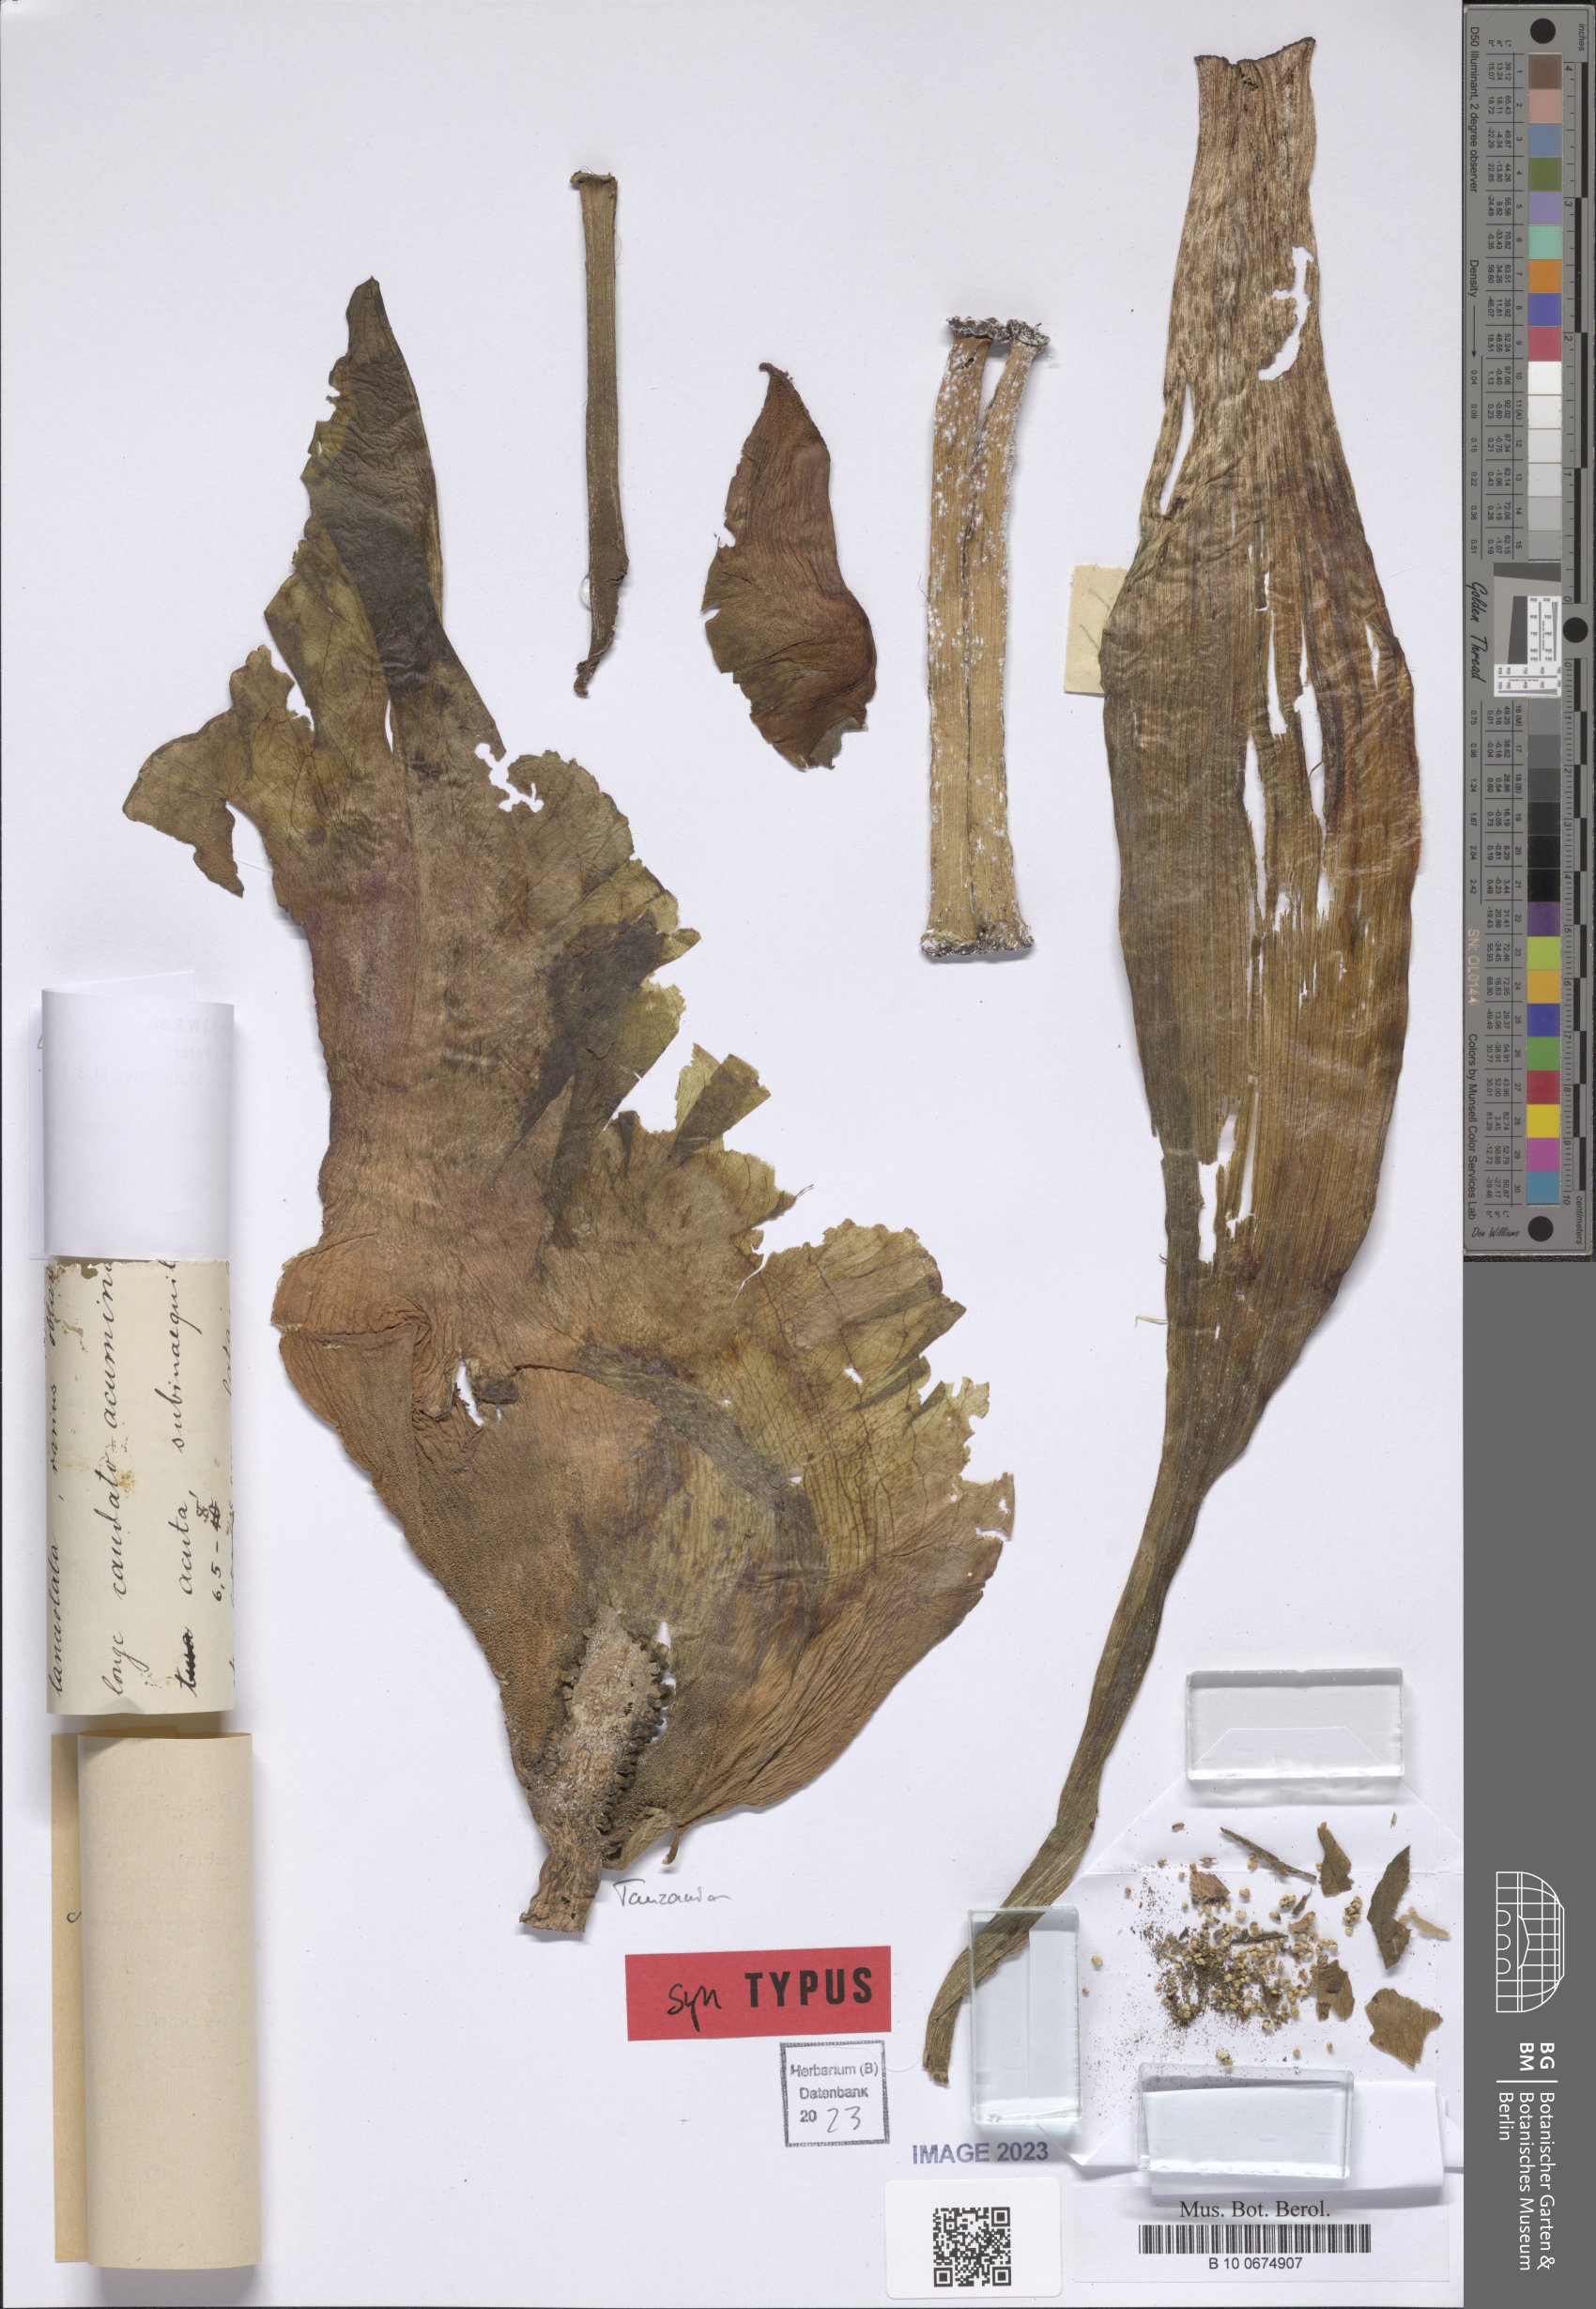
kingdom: Plantae
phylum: Tracheophyta
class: Liliopsida
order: Alismatales
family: Araceae
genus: Amorphophallus
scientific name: Amorphophallus goetzei
